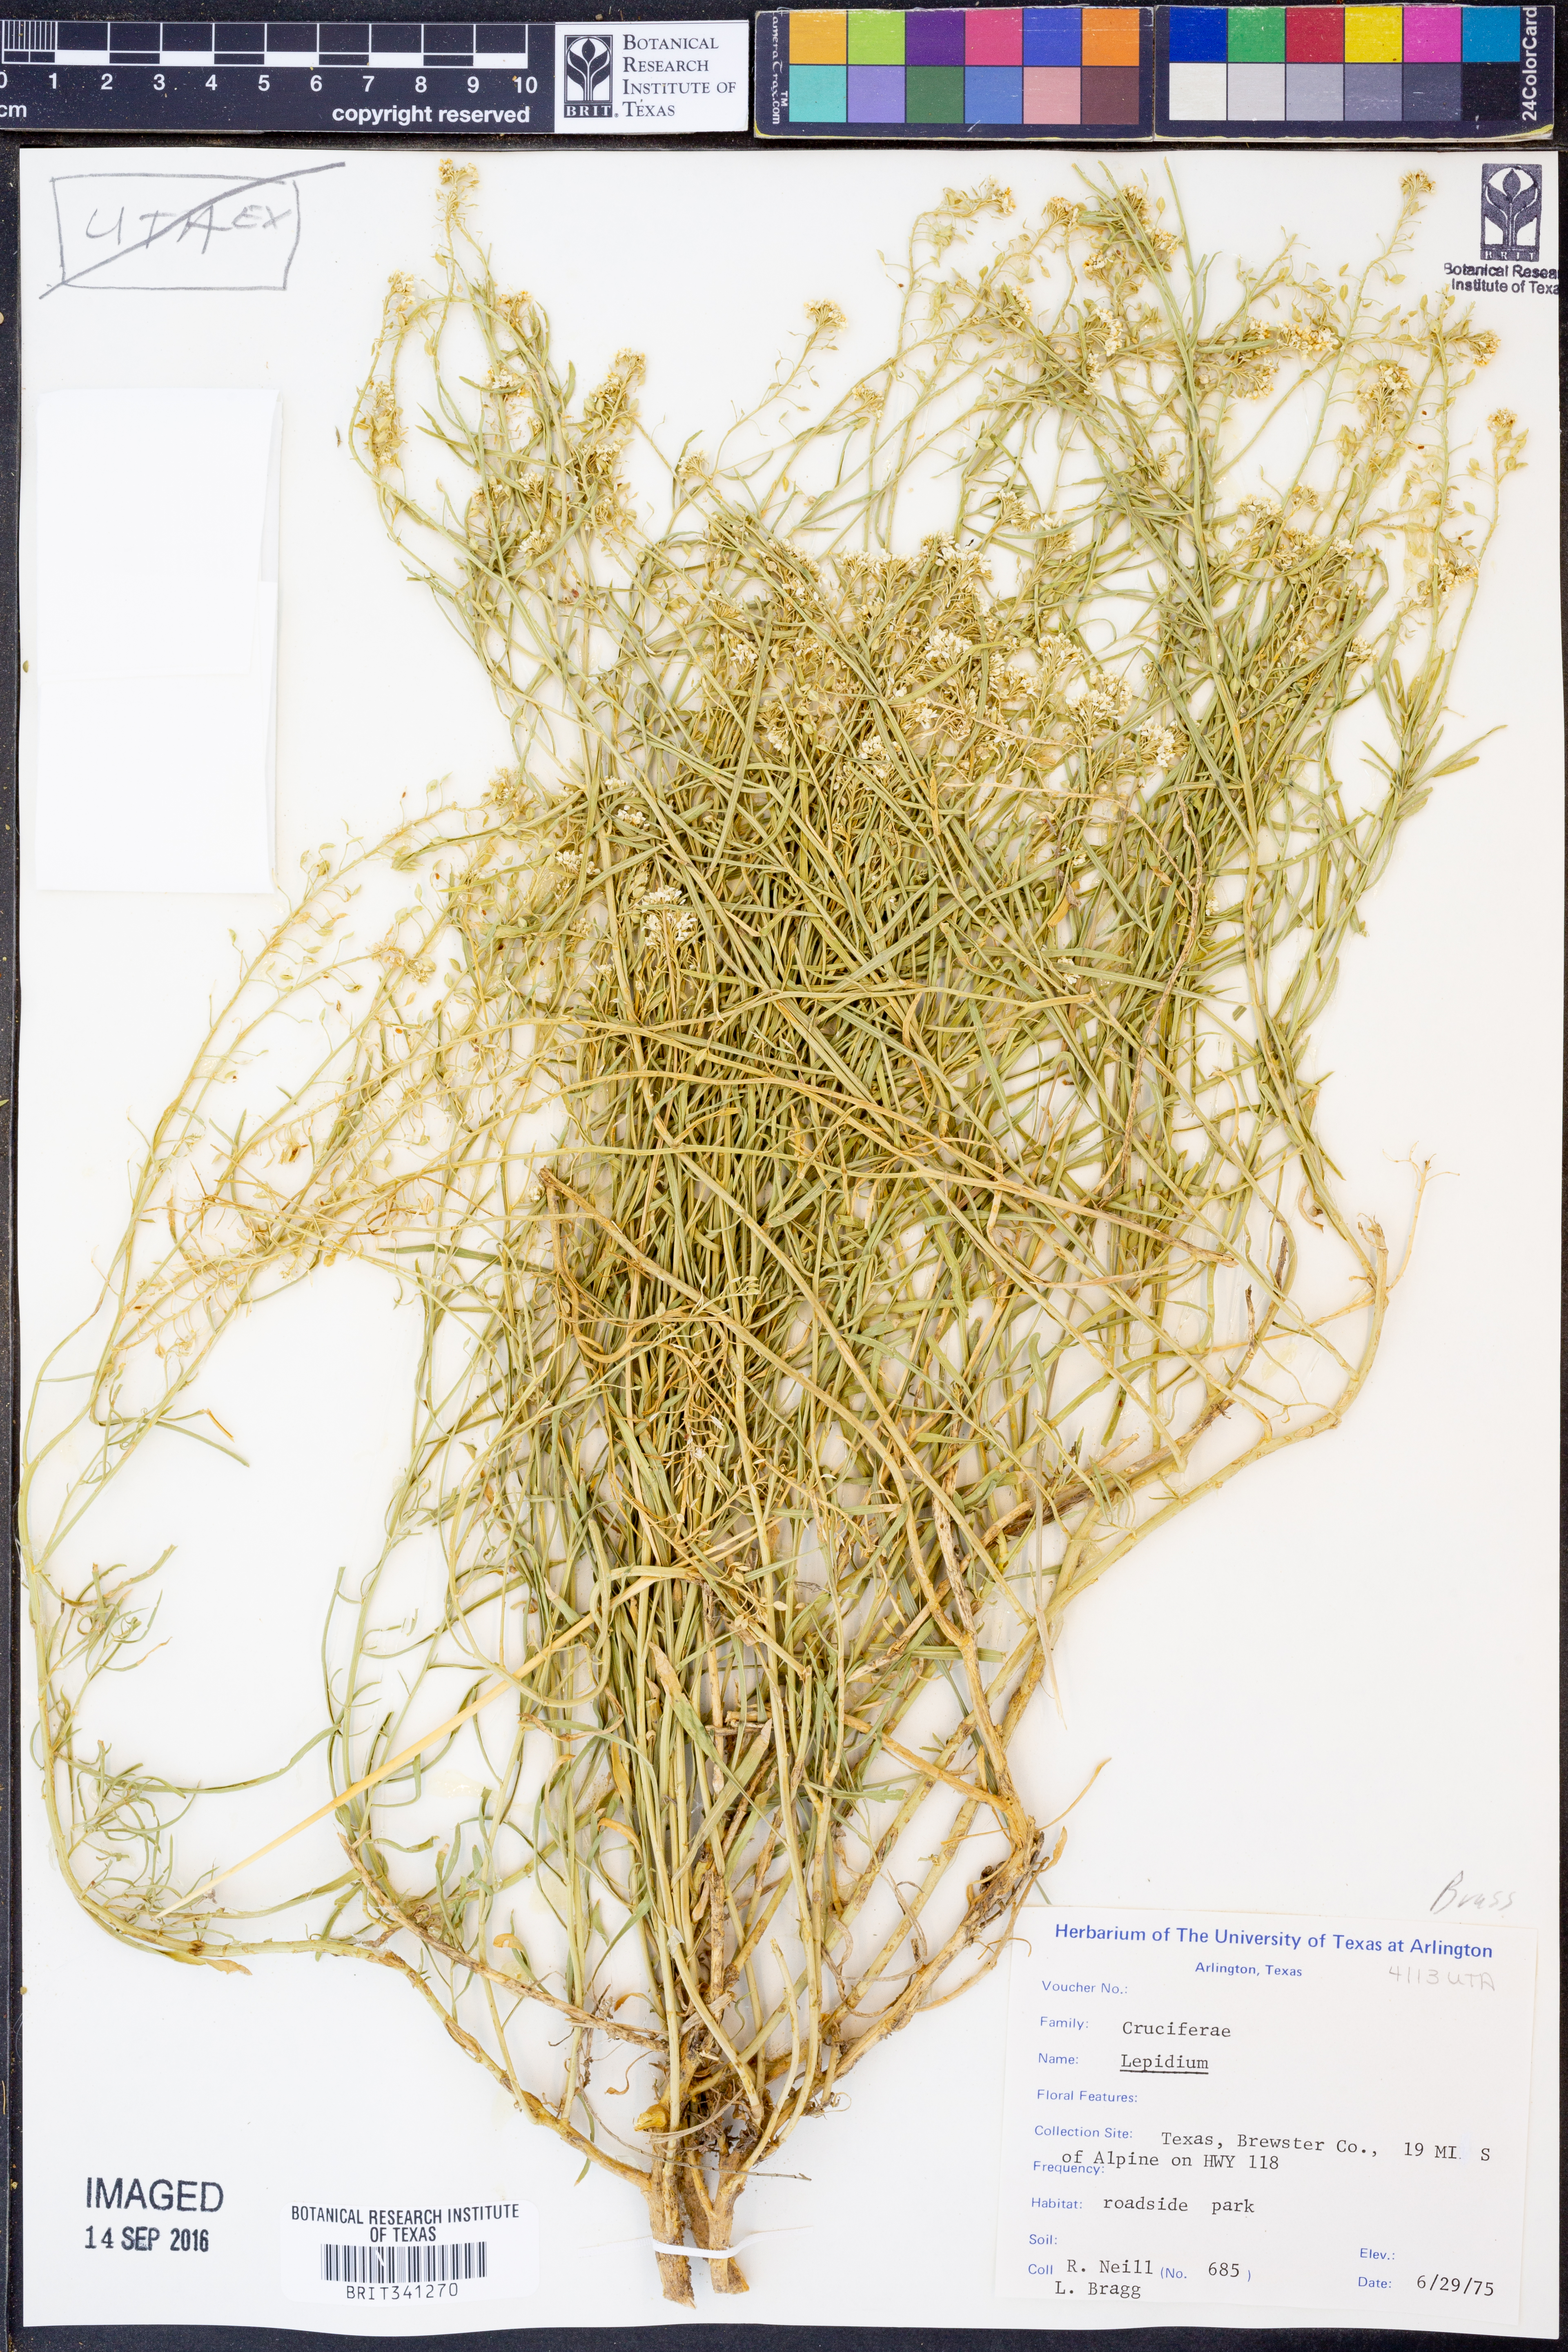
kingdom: Plantae
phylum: Tracheophyta
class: Magnoliopsida
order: Brassicales
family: Brassicaceae
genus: Lepidium
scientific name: Lepidium
